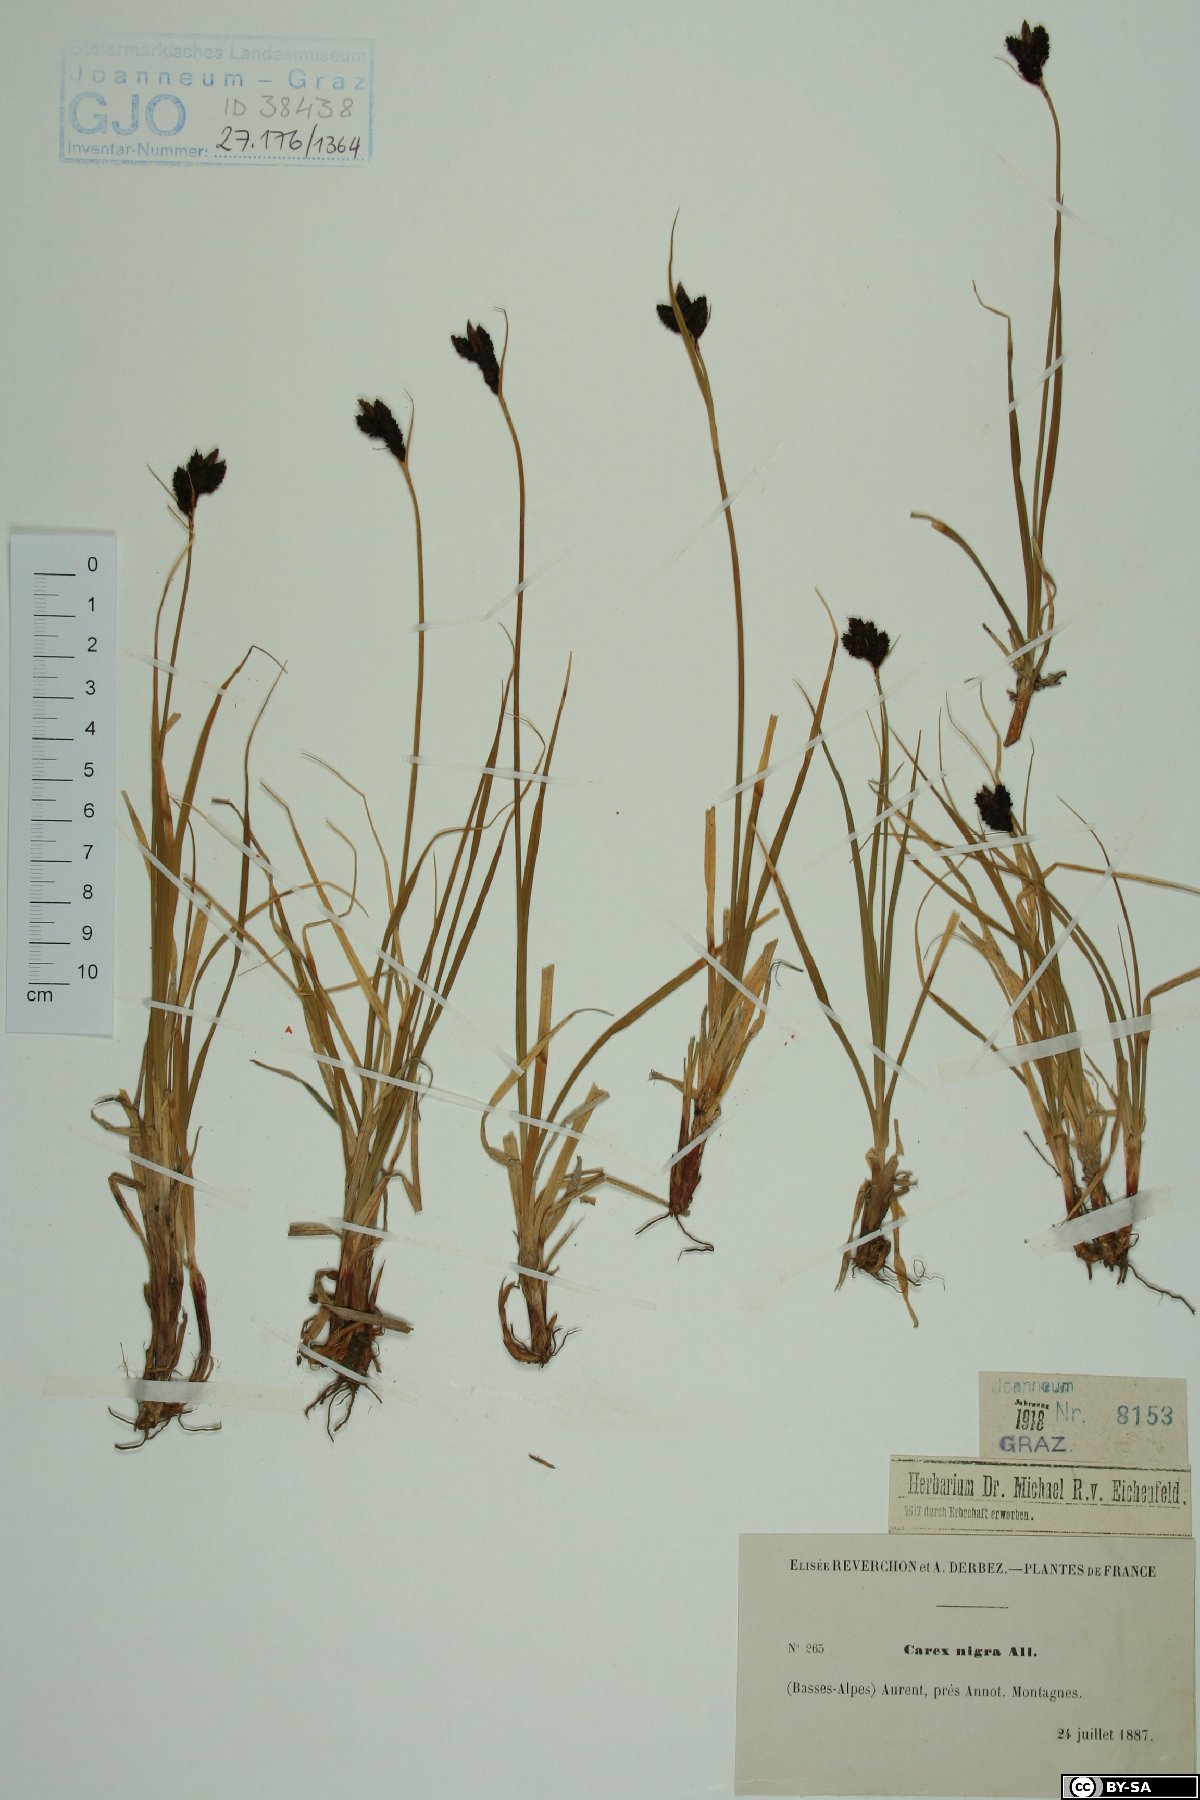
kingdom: Plantae
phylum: Tracheophyta
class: Liliopsida
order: Poales
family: Cyperaceae
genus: Carex
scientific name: Carex nigra
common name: Common sedge
